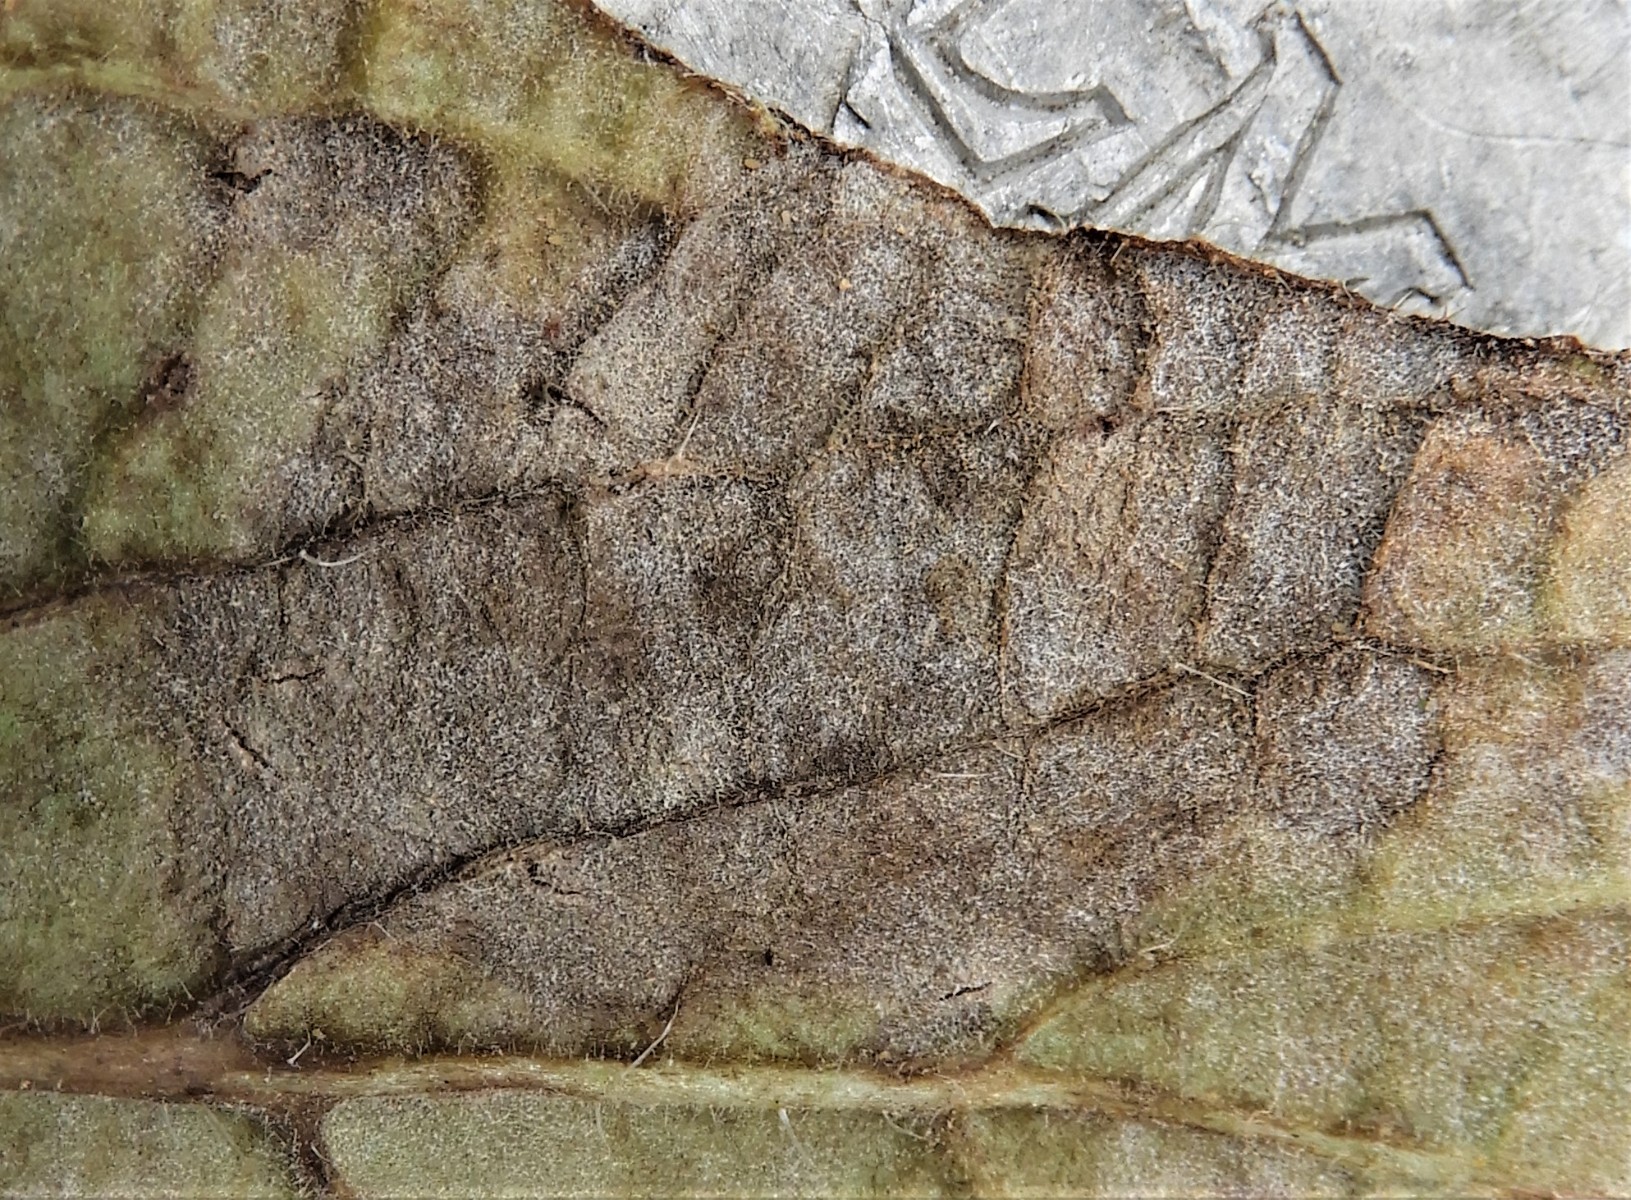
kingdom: Fungi
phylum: Ascomycota
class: Leotiomycetes
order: Helotiales
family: Erysiphaceae
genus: Golovinomyces
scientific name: Golovinomyces cynoglossi
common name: rublad-meldug
